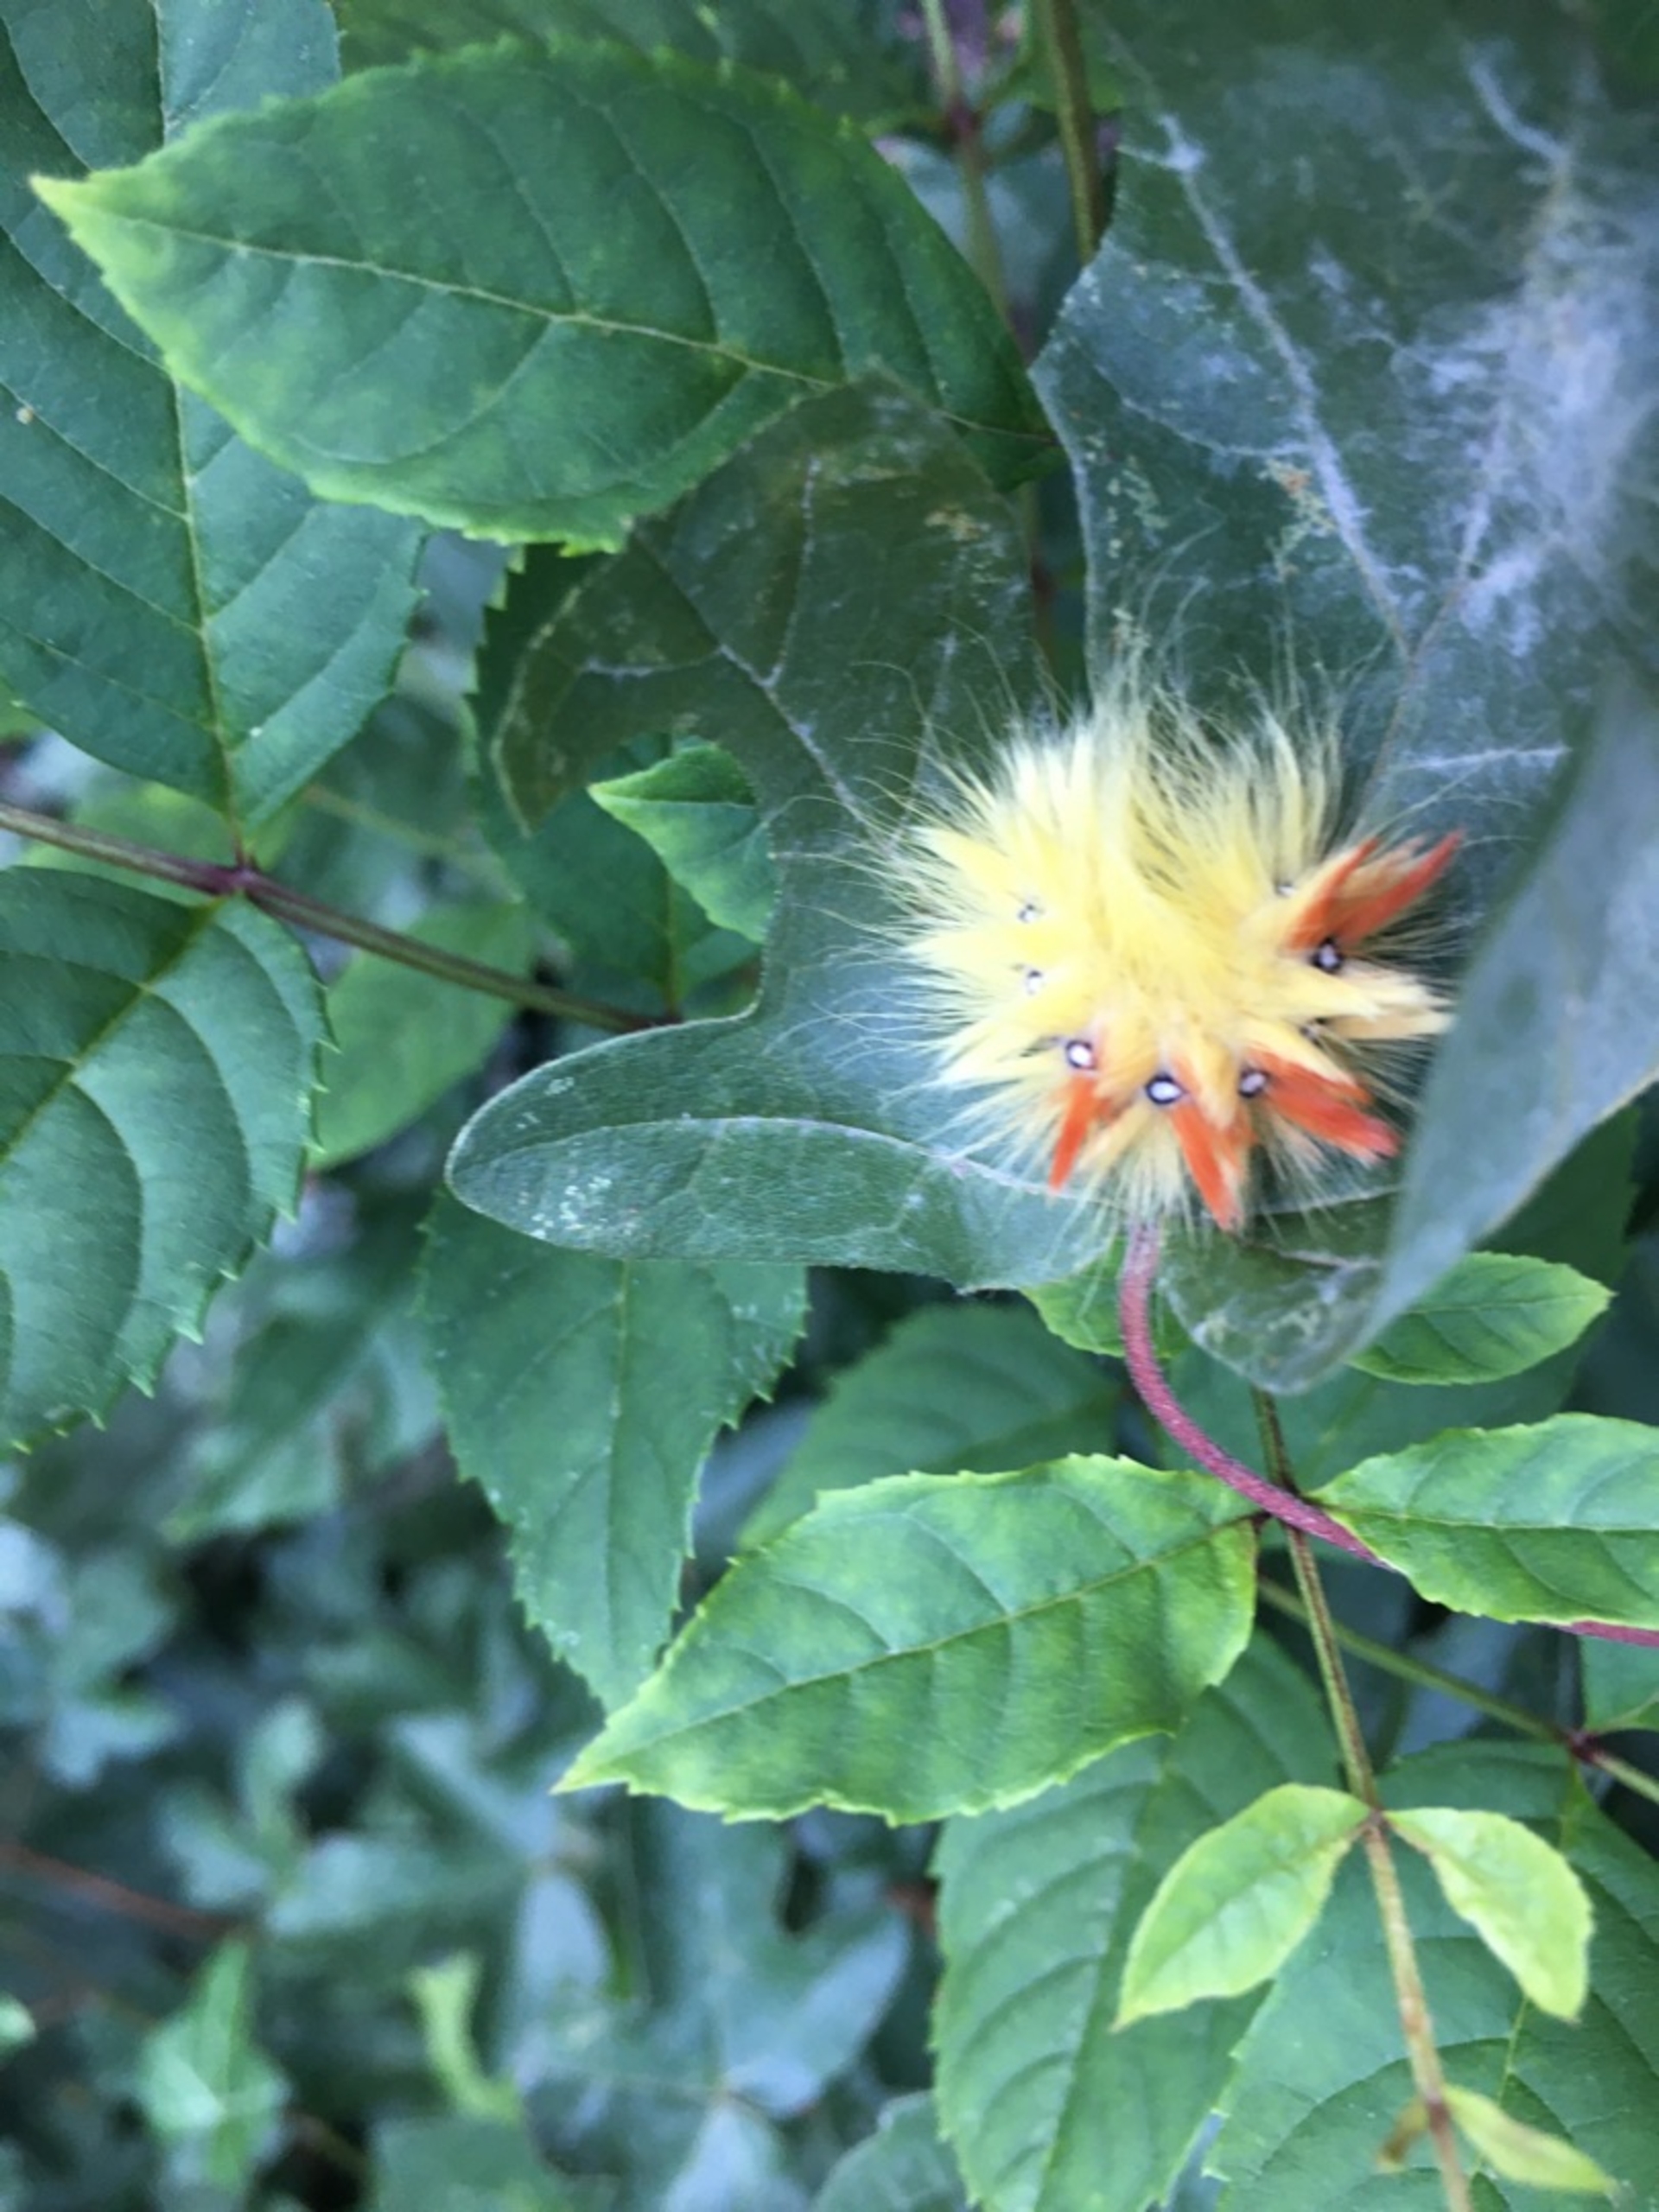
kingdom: Animalia
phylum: Arthropoda
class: Insecta
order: Lepidoptera
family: Noctuidae
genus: Acronicta
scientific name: Acronicta aceris
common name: Ahornugle
